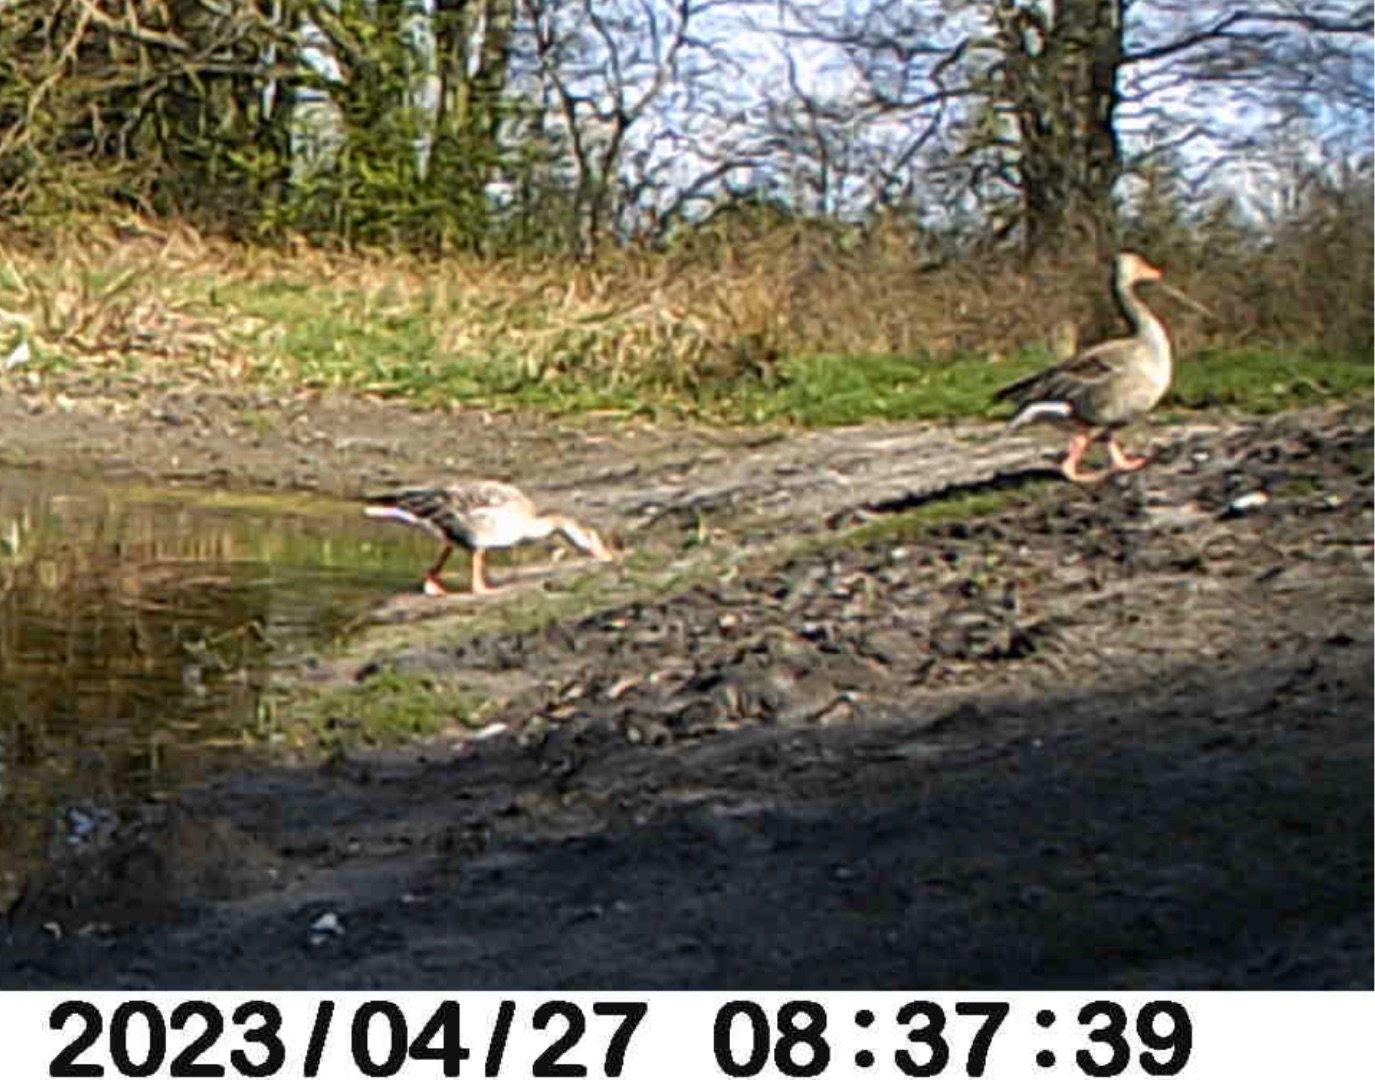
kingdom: Animalia
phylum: Chordata
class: Aves
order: Anseriformes
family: Anatidae
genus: Anser
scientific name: Anser anser
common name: Grågås
